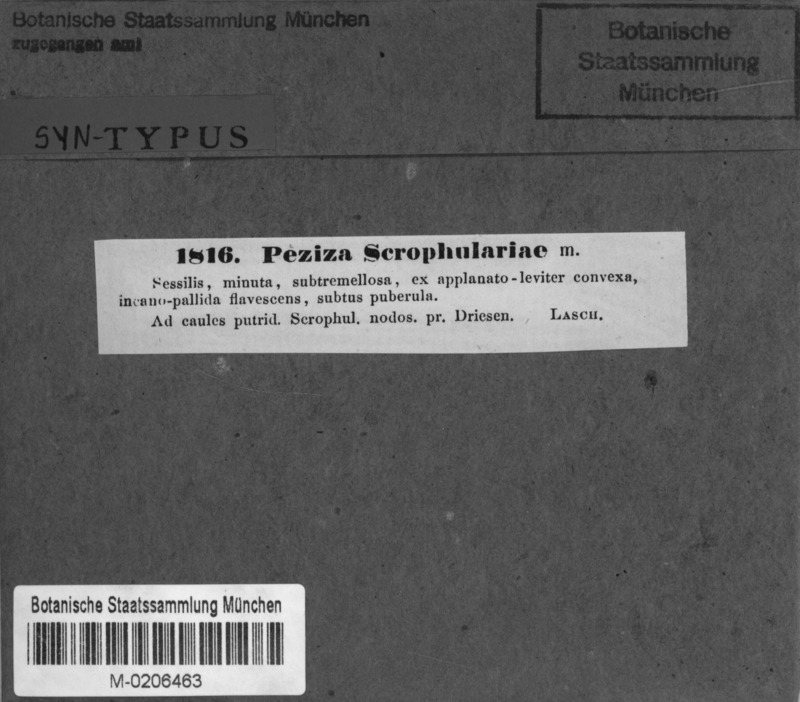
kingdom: Fungi
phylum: Ascomycota
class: Leotiomycetes
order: Helotiales
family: Lachnaceae
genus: Trichopeziza
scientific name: Trichopeziza scrophulariae
